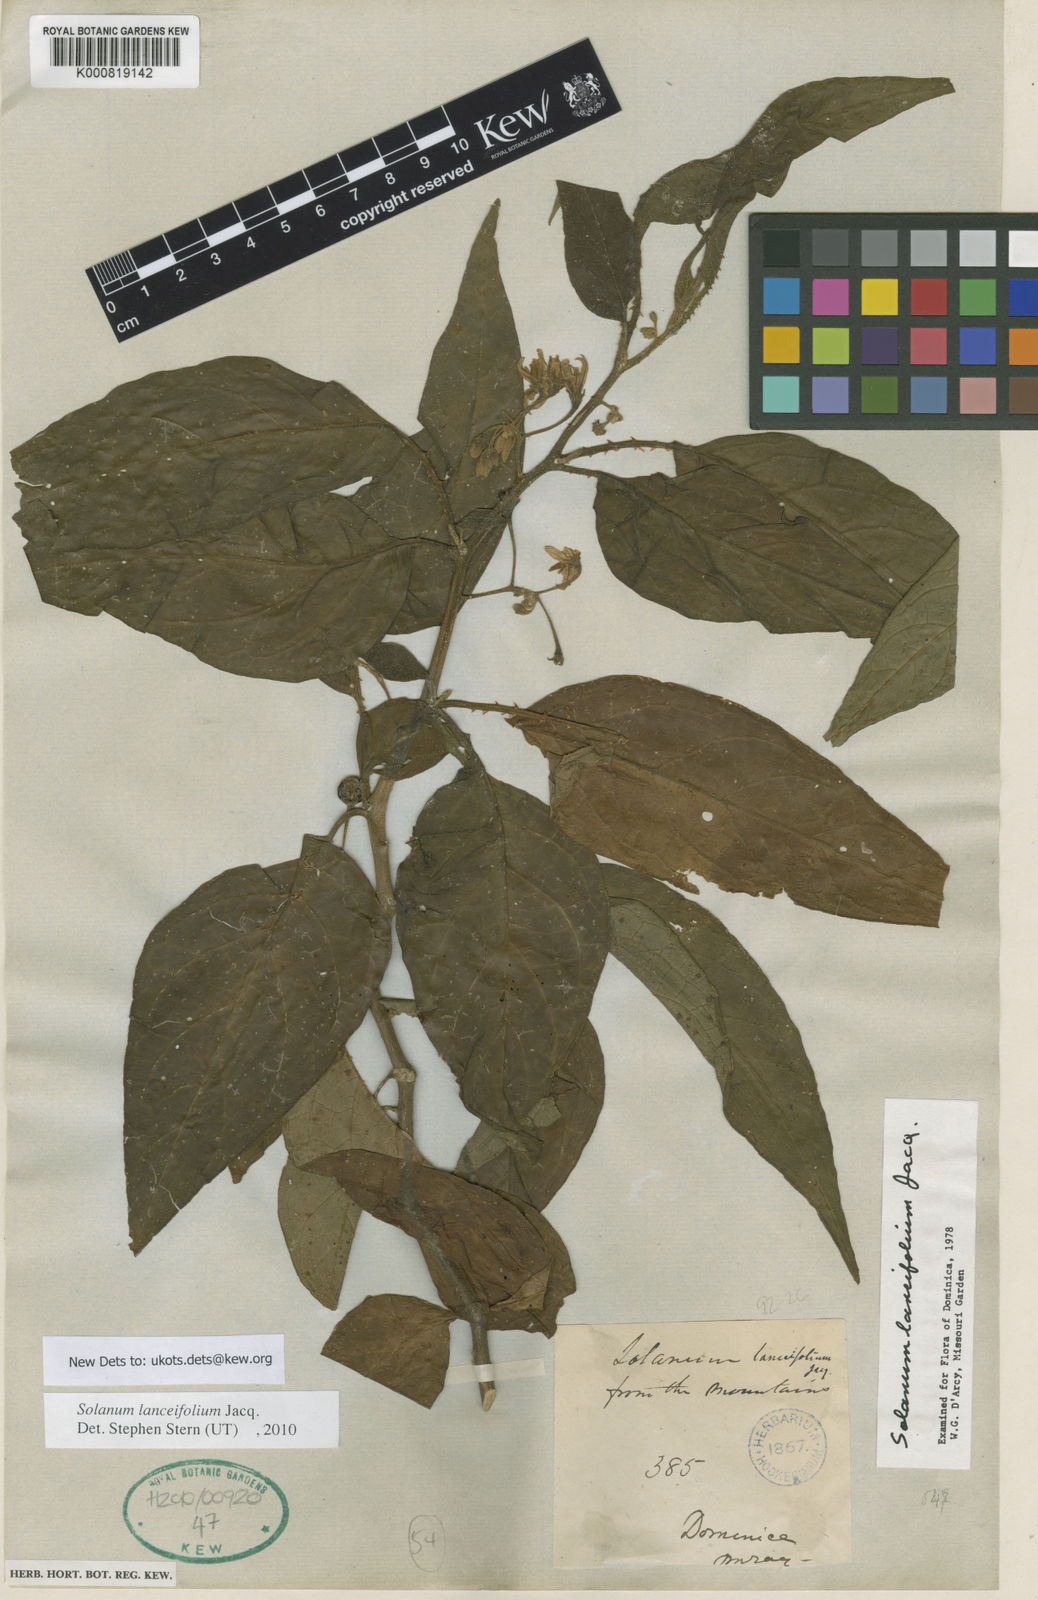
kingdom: Plantae
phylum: Tracheophyta
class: Magnoliopsida
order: Solanales
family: Solanaceae
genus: Solanum
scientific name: Solanum lanceifolium
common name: Lanceleaf nightshade
